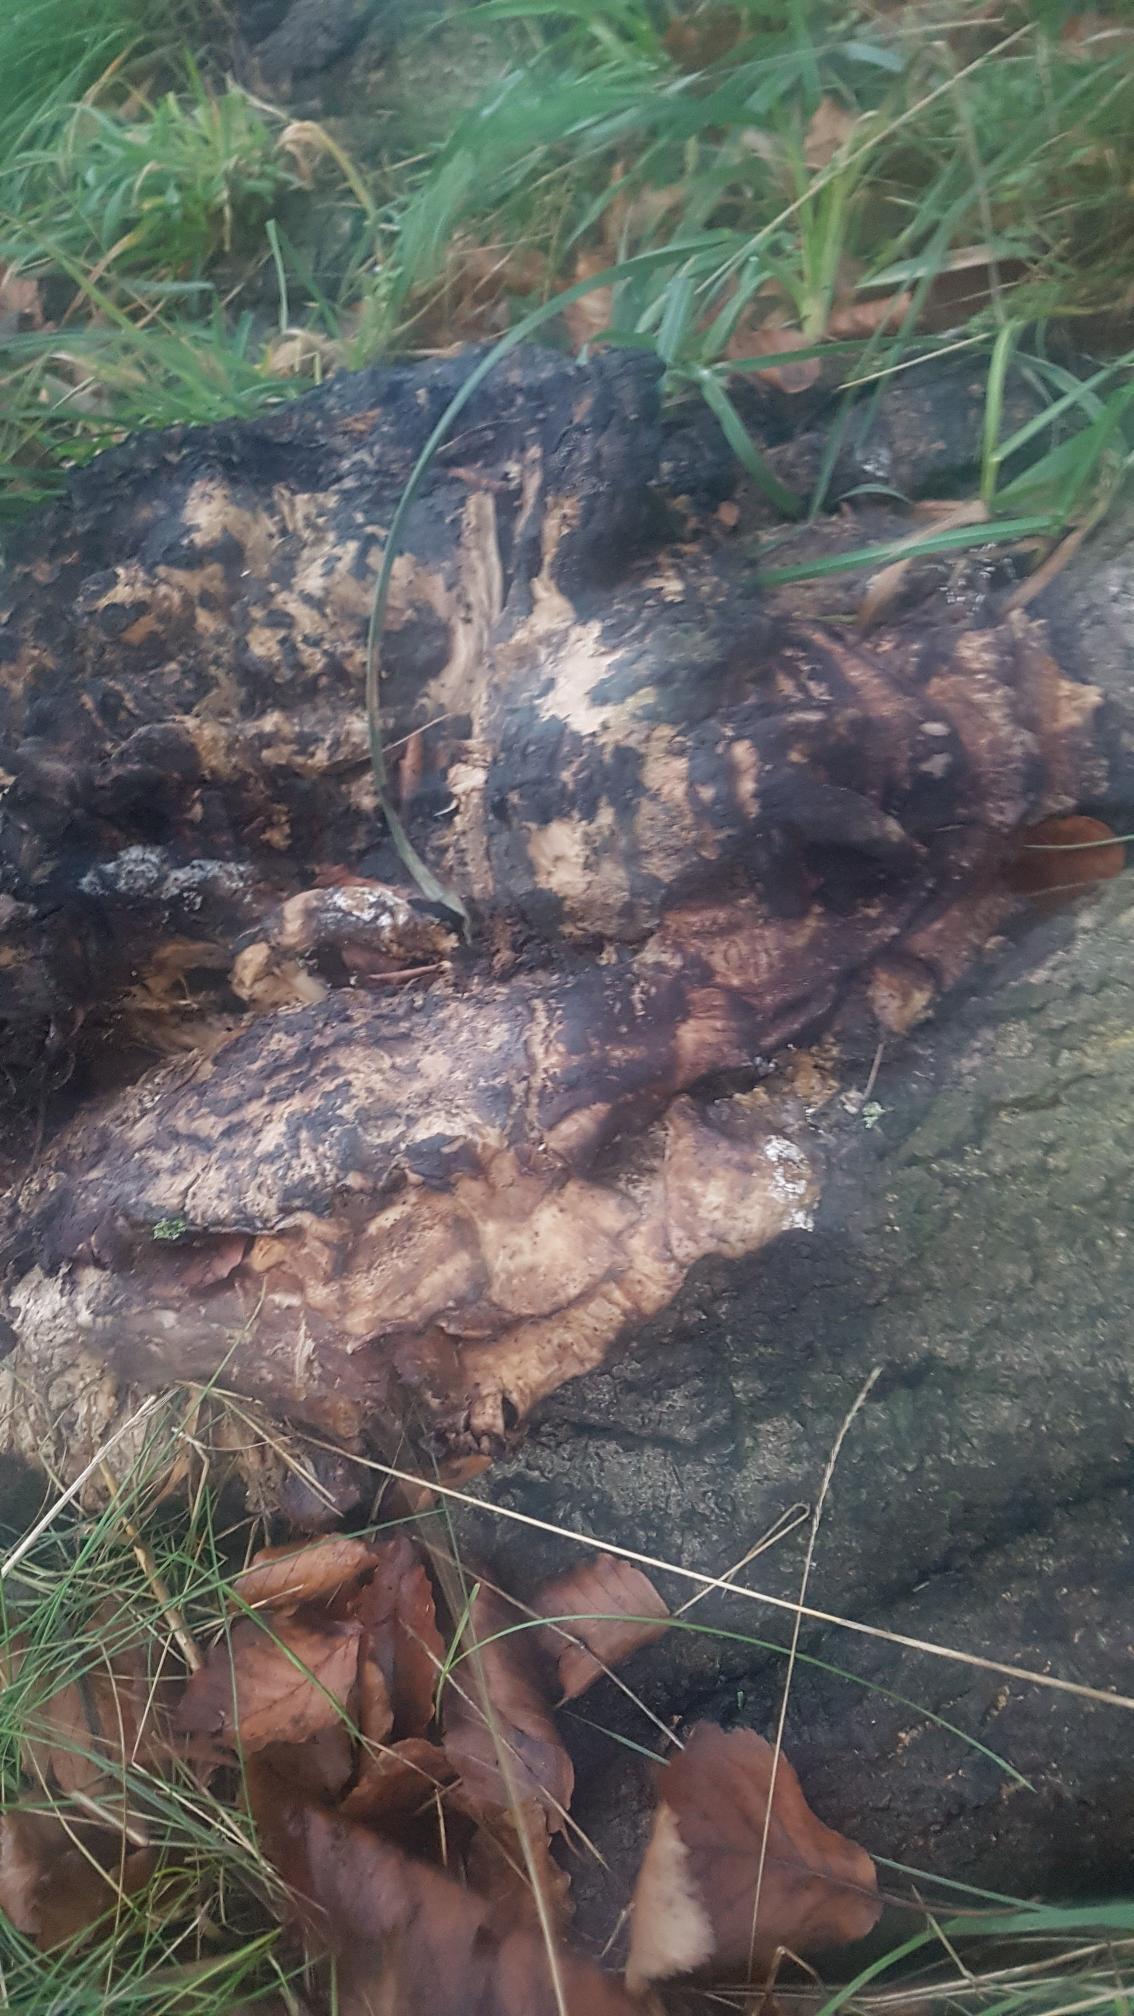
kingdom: Fungi
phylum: Basidiomycota
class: Agaricomycetes
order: Polyporales
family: Meripilaceae
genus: Meripilus
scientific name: Meripilus giganteus
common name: Kæmpeporesvamp
